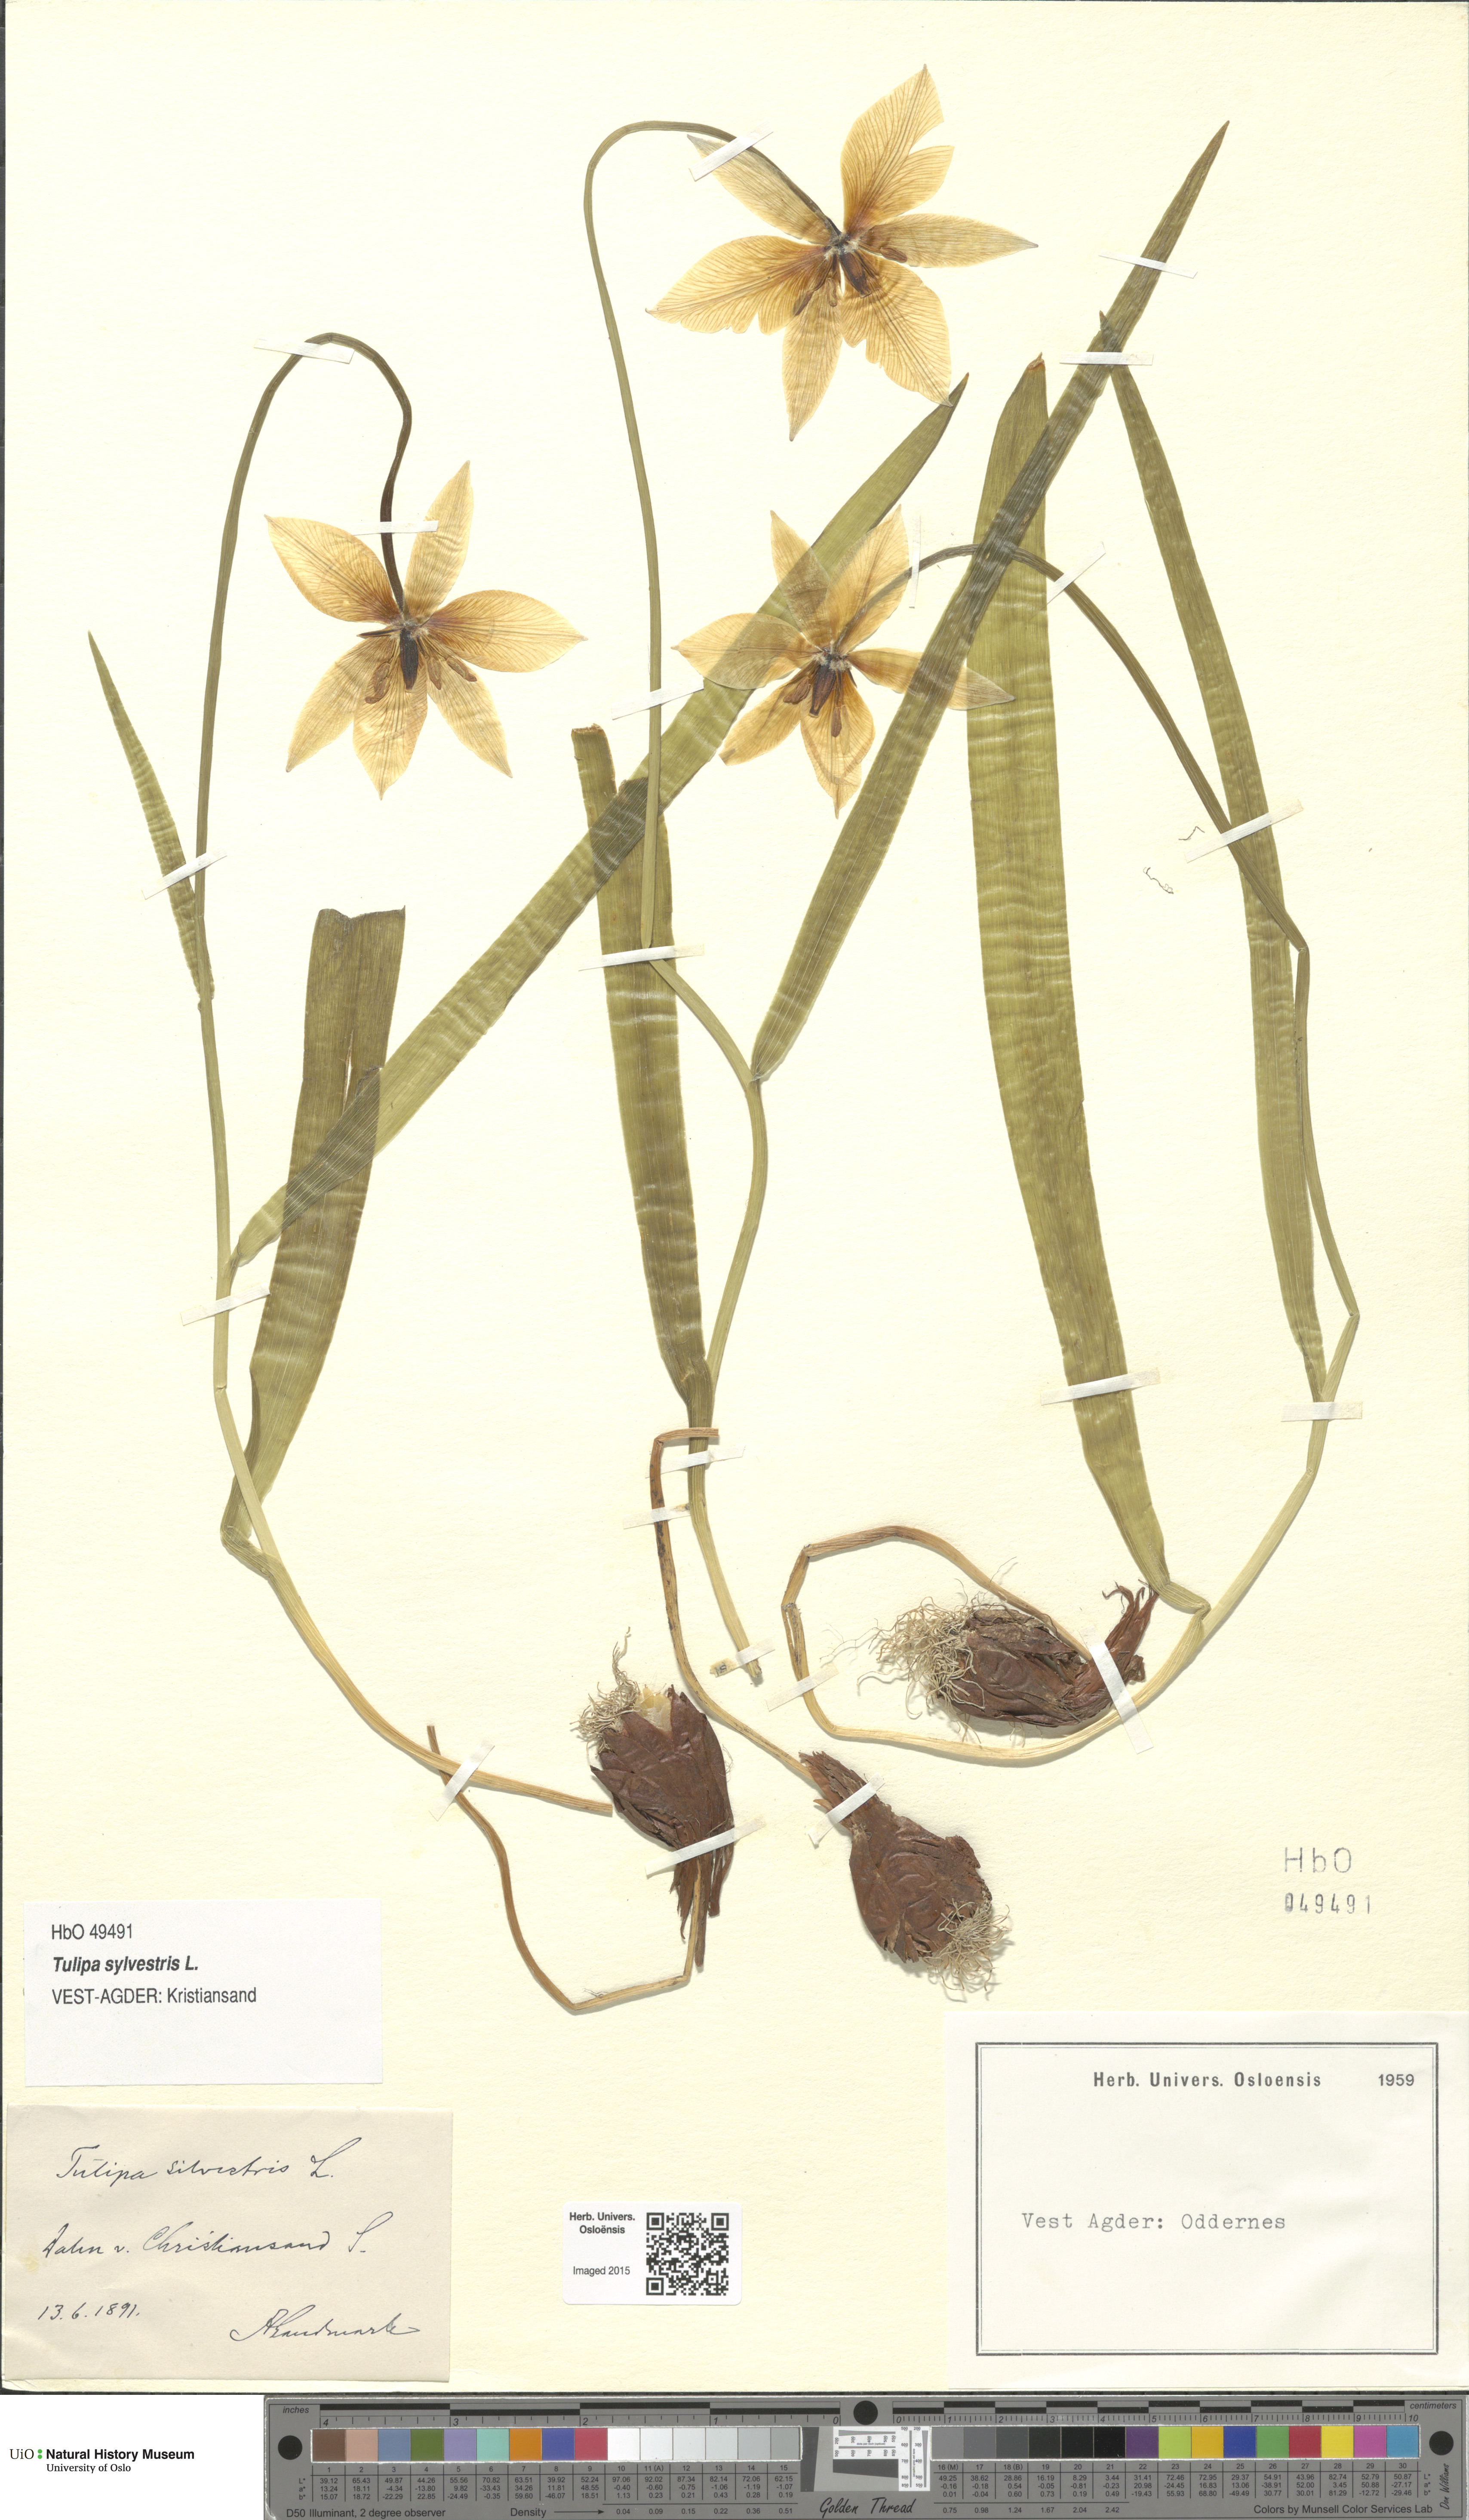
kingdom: Plantae
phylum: Tracheophyta
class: Liliopsida
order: Liliales
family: Liliaceae
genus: Tulipa
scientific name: Tulipa sylvestris
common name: Wild tulip
